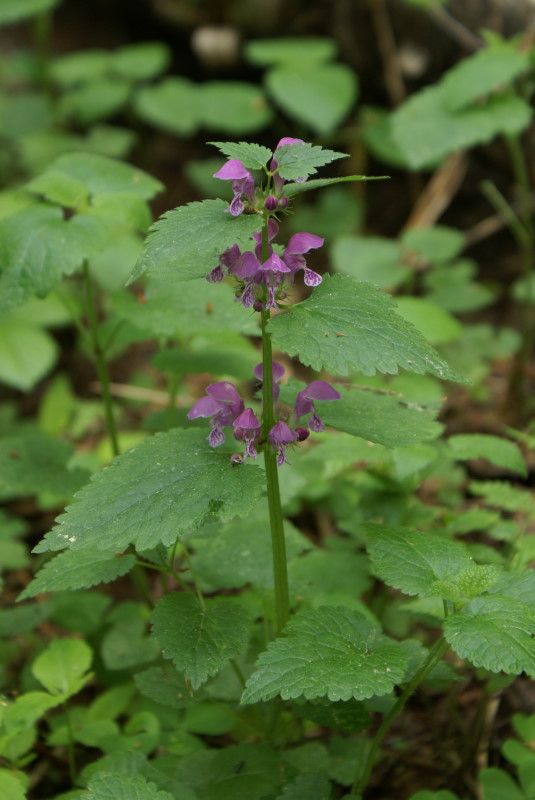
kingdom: Plantae
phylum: Tracheophyta
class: Magnoliopsida
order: Lamiales
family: Lamiaceae
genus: Lamium
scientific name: Lamium maculatum
